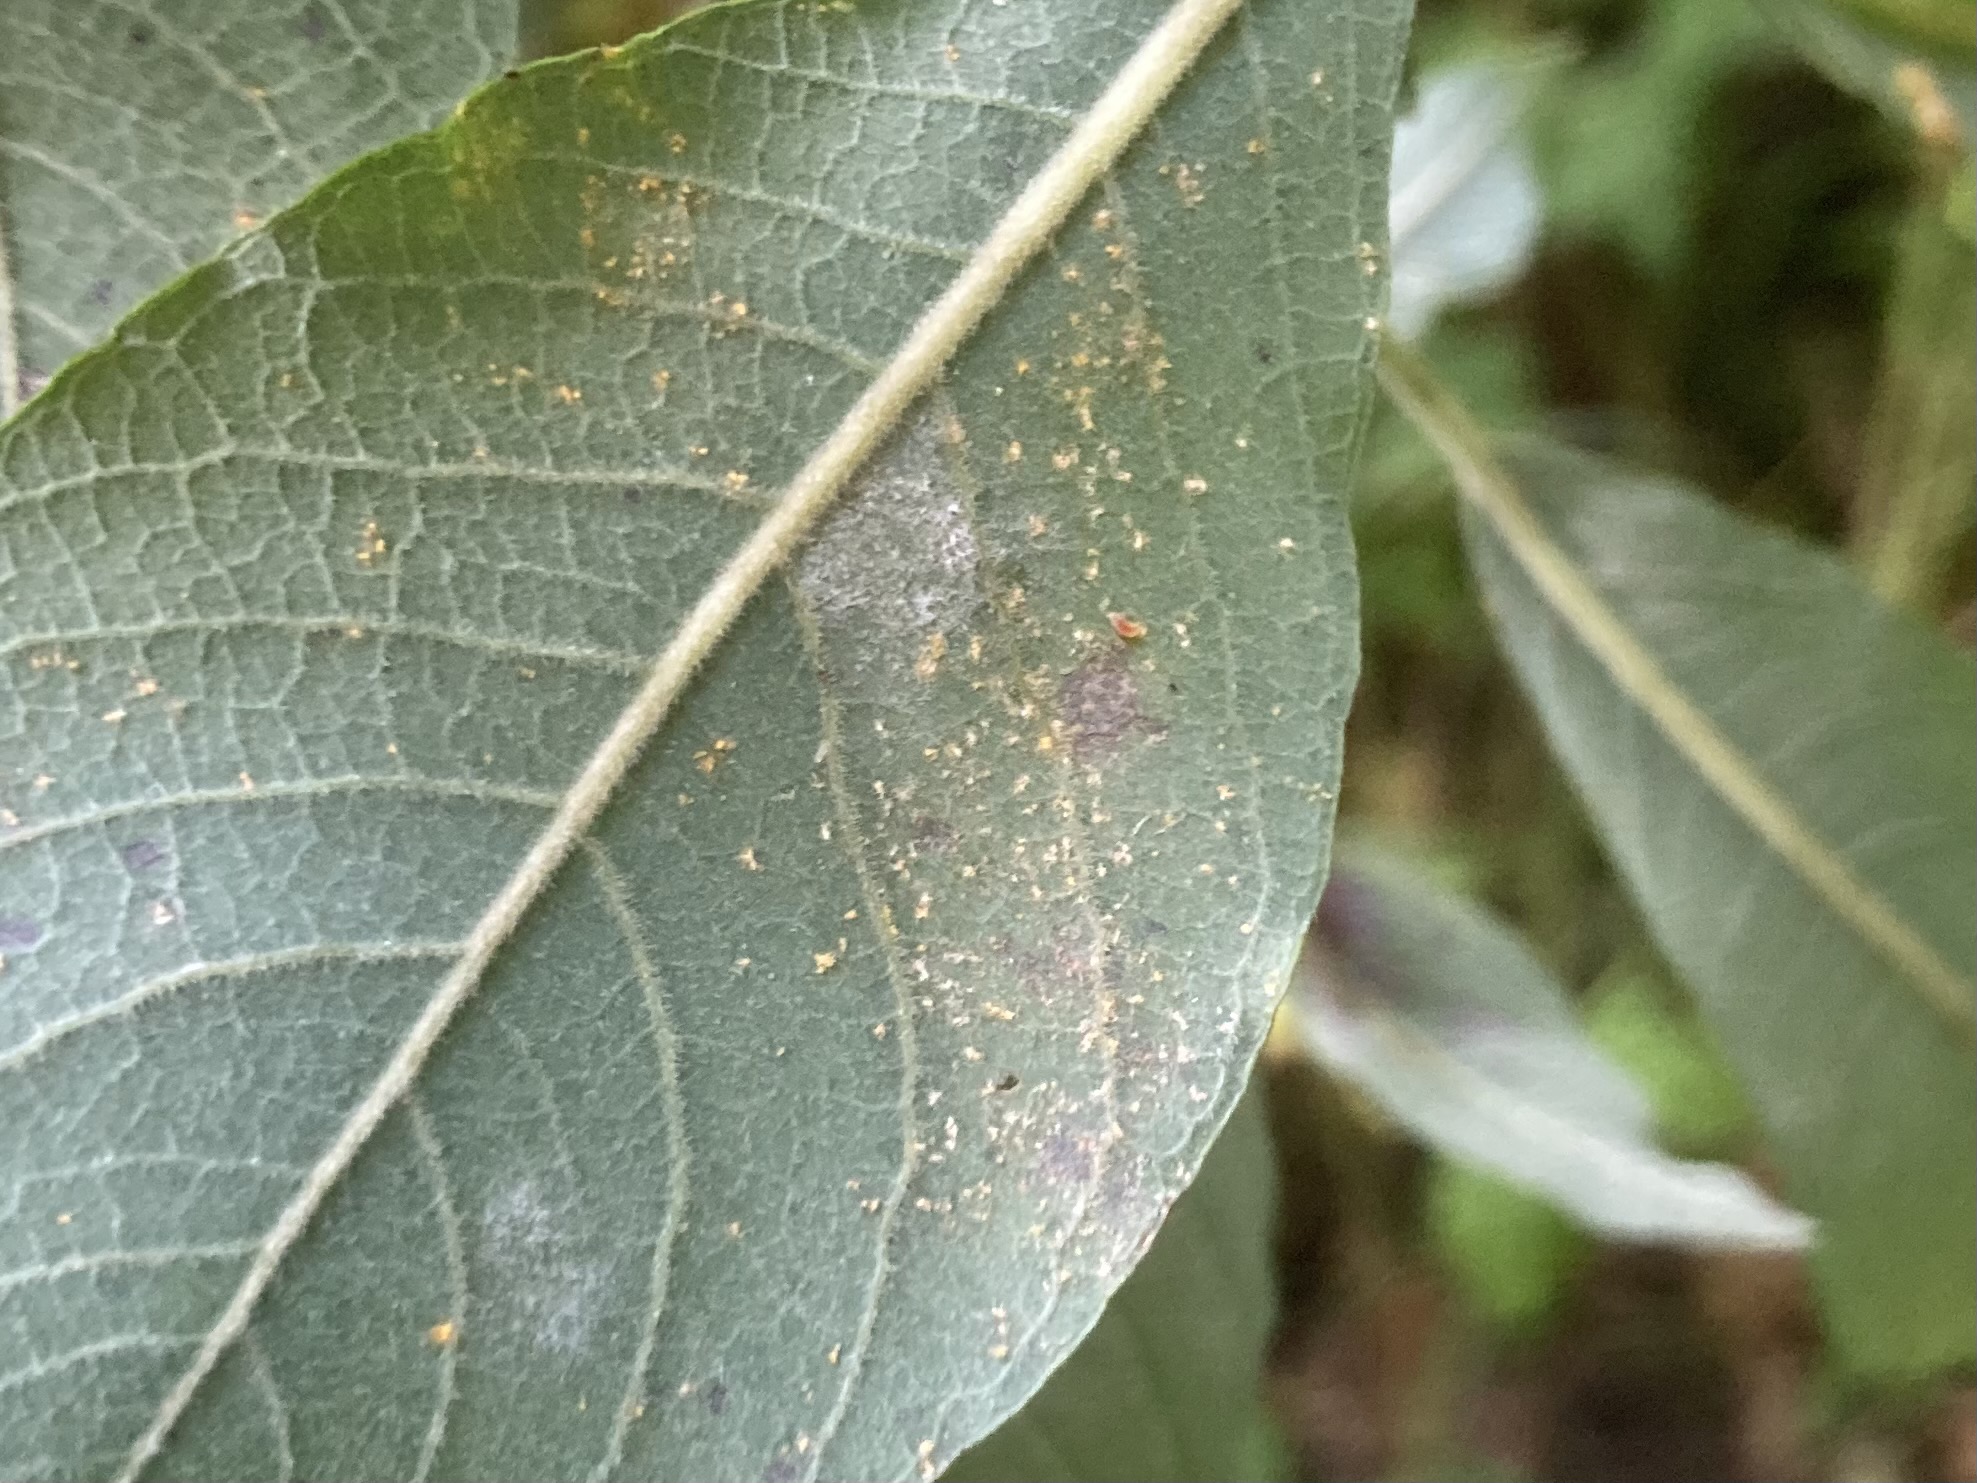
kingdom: Fungi
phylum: Basidiomycota
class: Pucciniomycetes
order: Pucciniales
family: Melampsoraceae
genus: Melampsora
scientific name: Melampsora epitea
